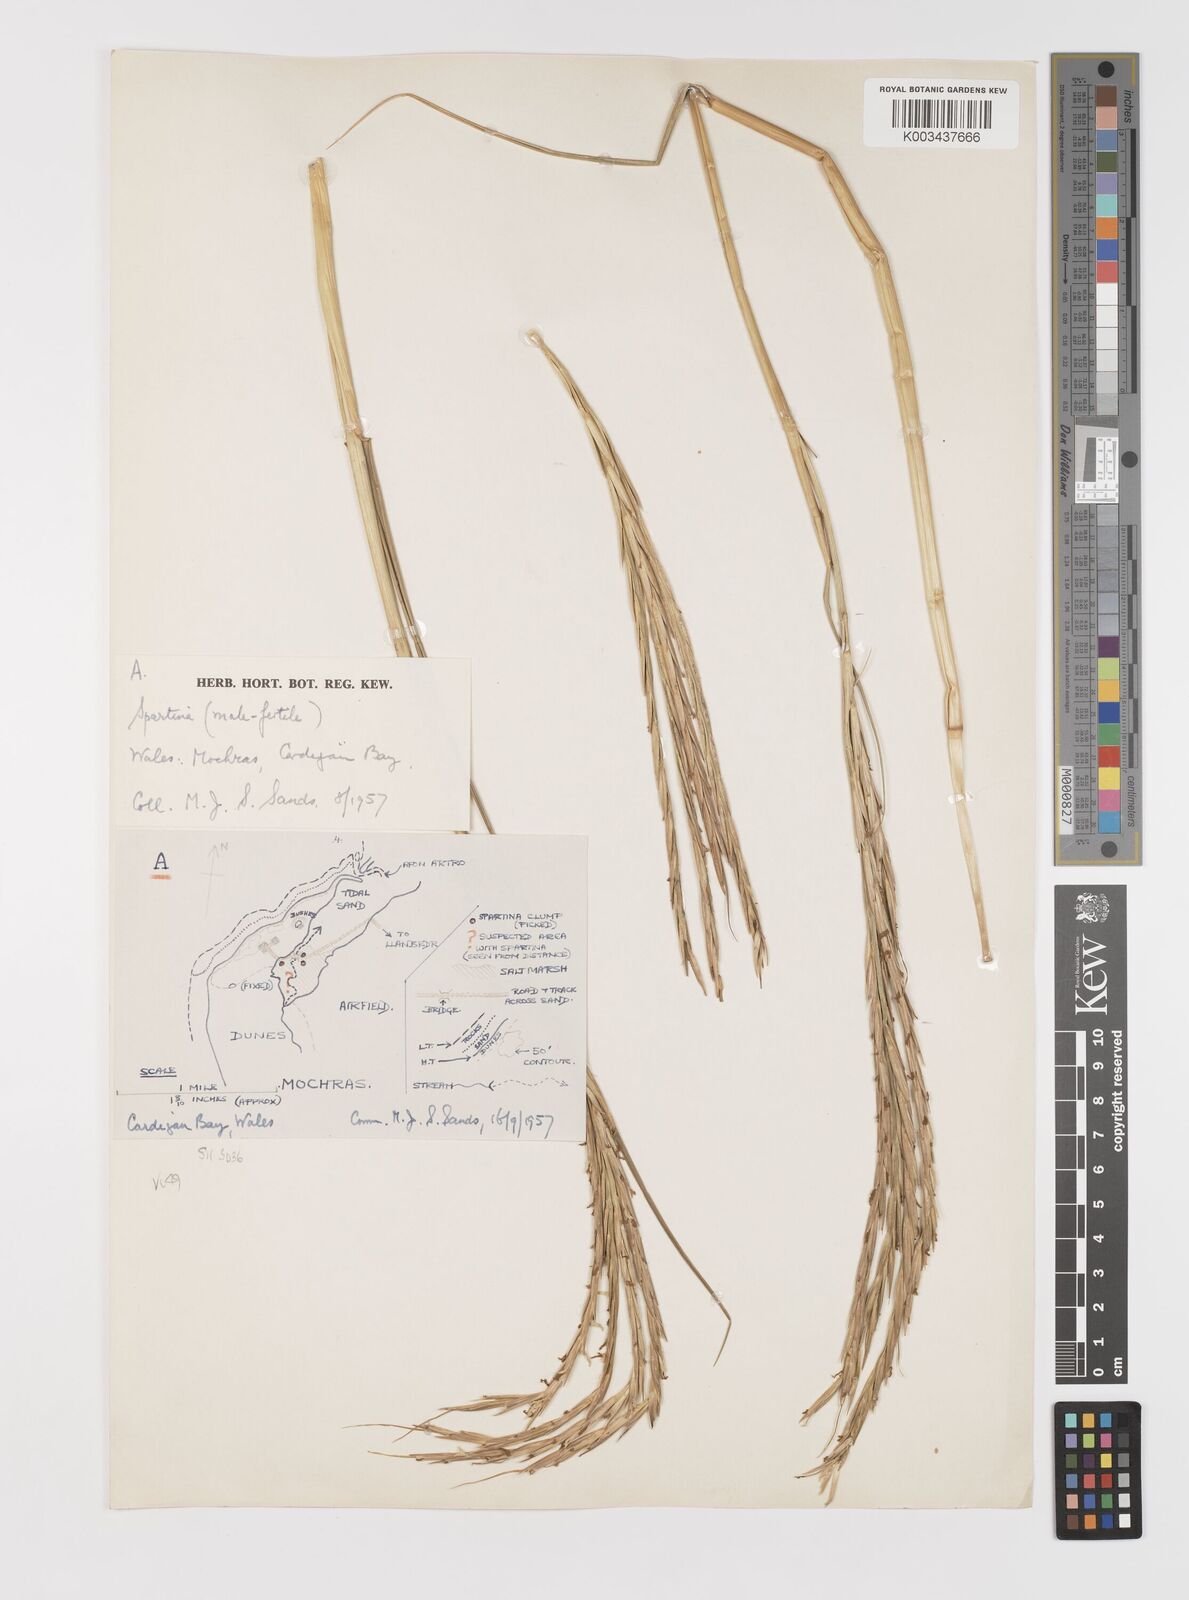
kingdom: Plantae
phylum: Tracheophyta
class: Liliopsida
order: Poales
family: Poaceae
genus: Sporobolus
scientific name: Sporobolus anglicus
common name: English cordgrass
